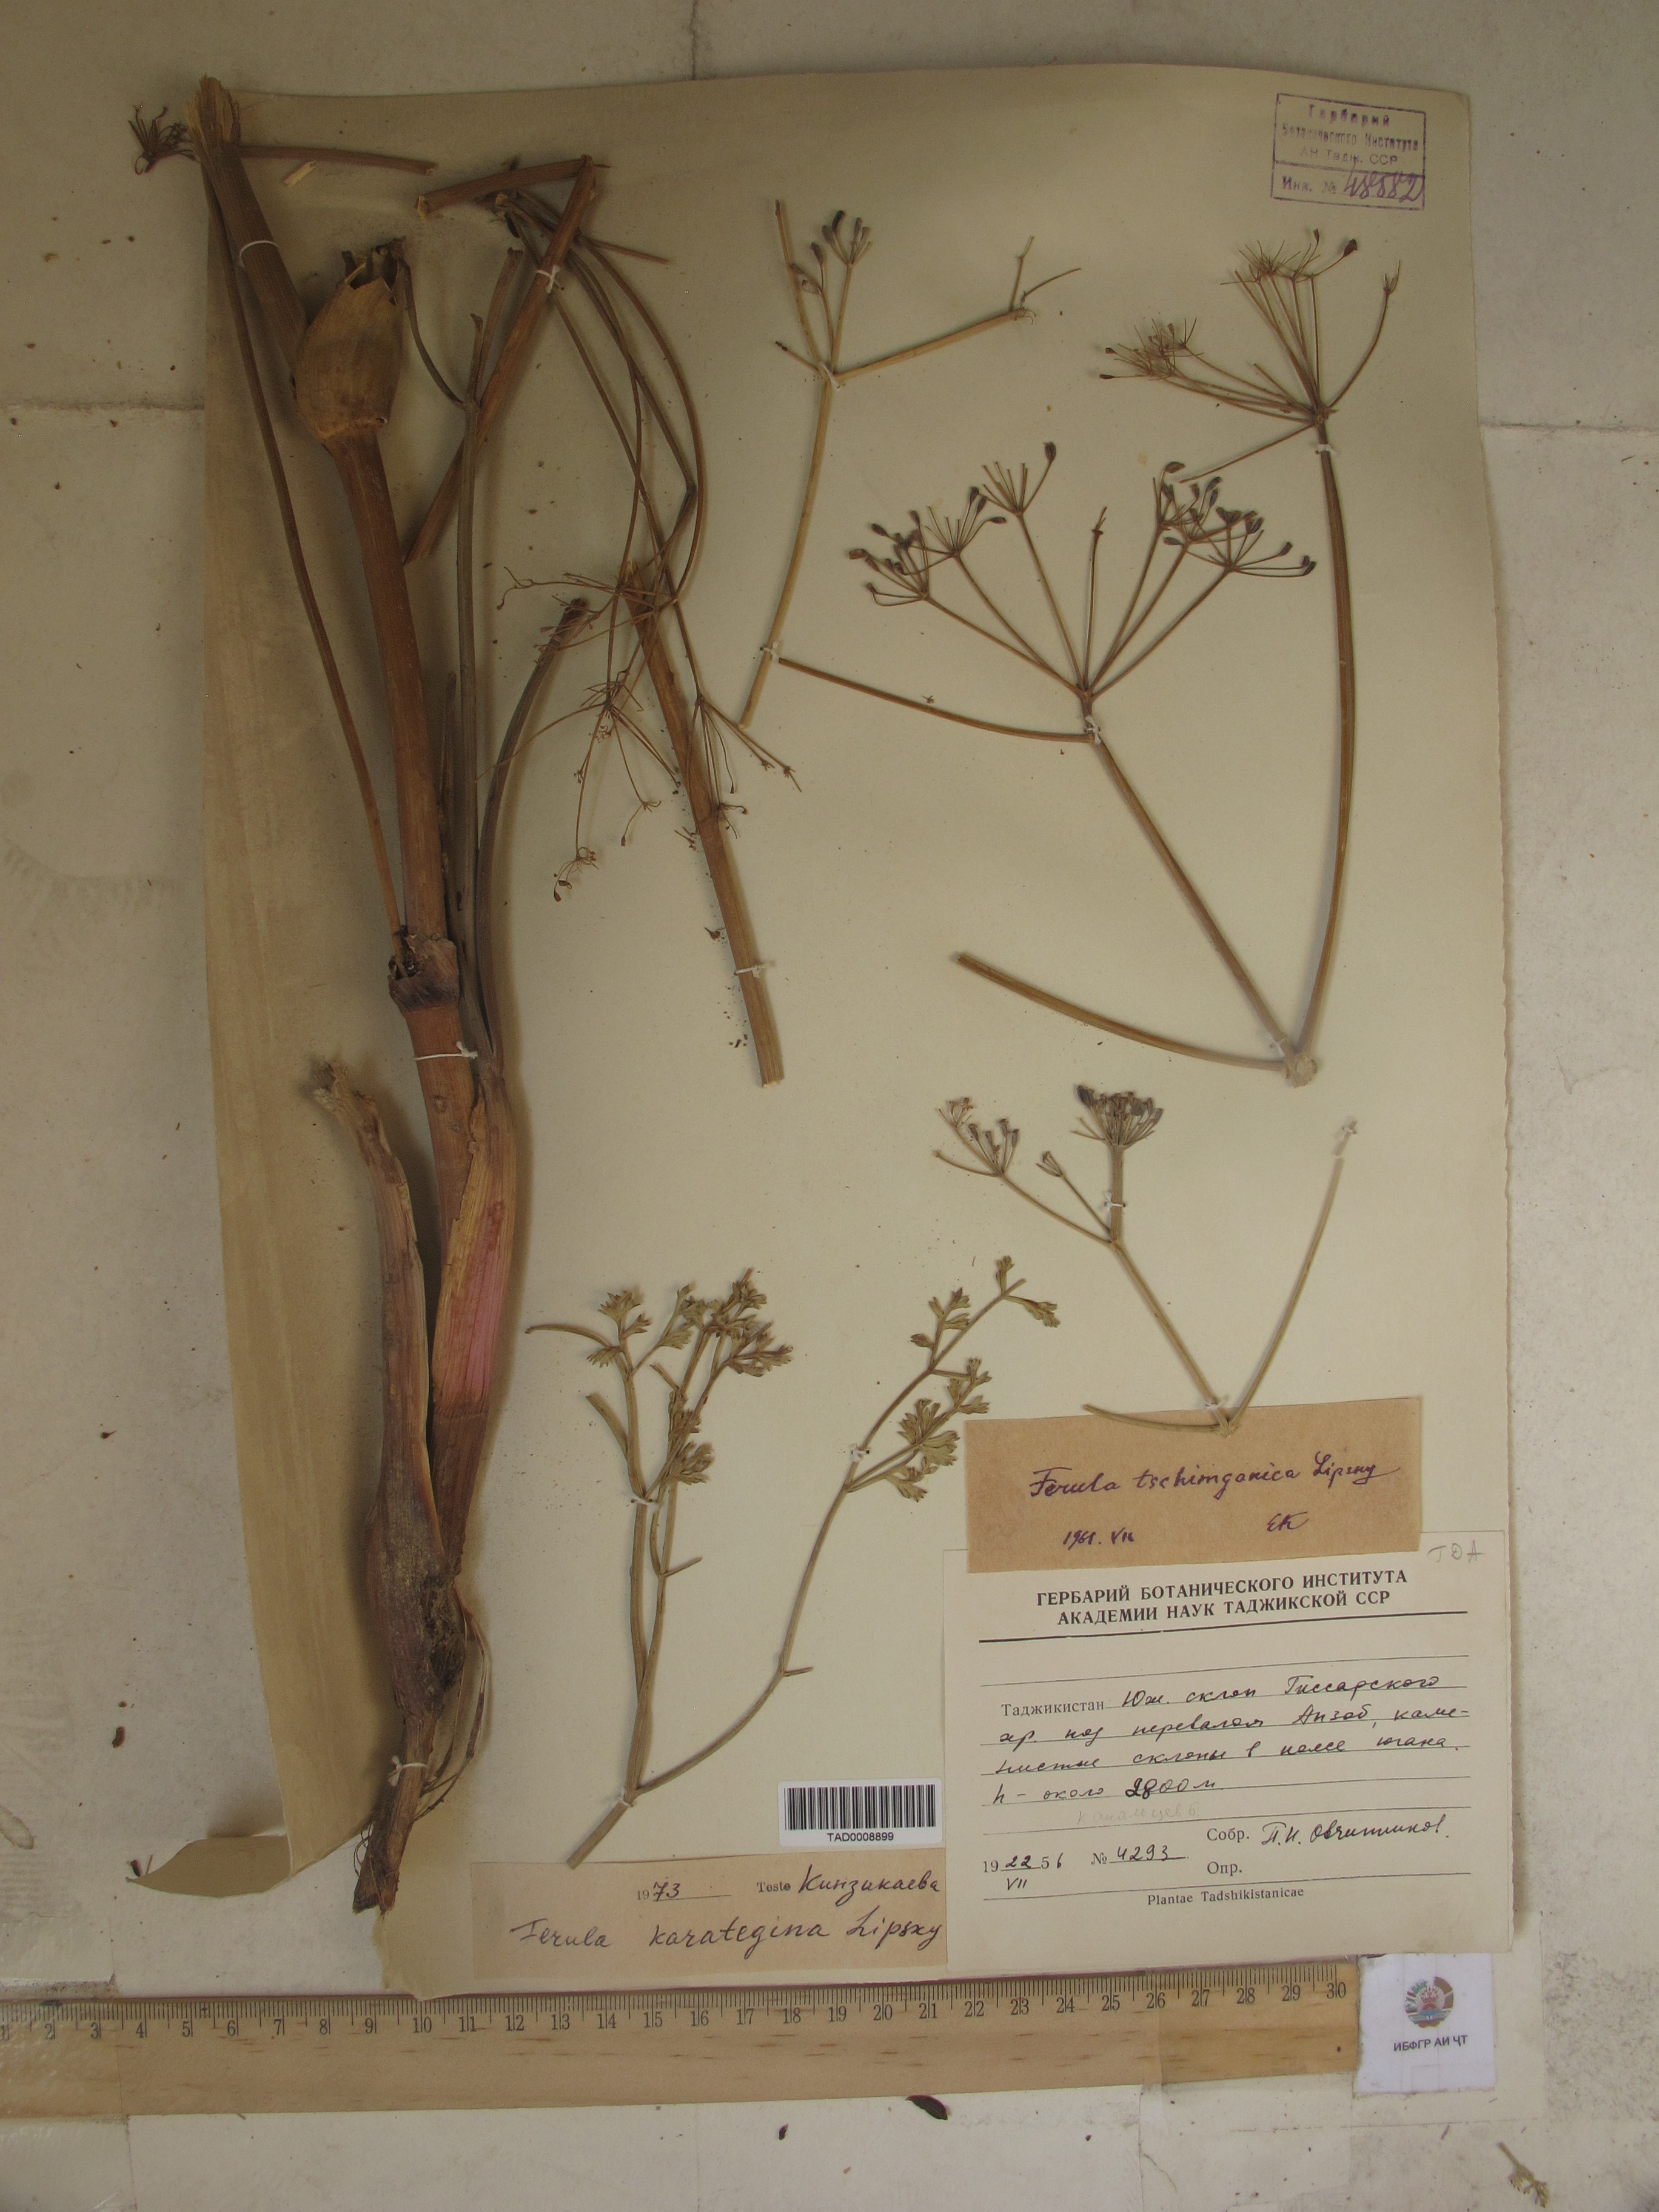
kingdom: Plantae
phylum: Tracheophyta
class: Magnoliopsida
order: Apiales
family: Apiaceae
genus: Ferula
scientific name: Ferula tschimganica
